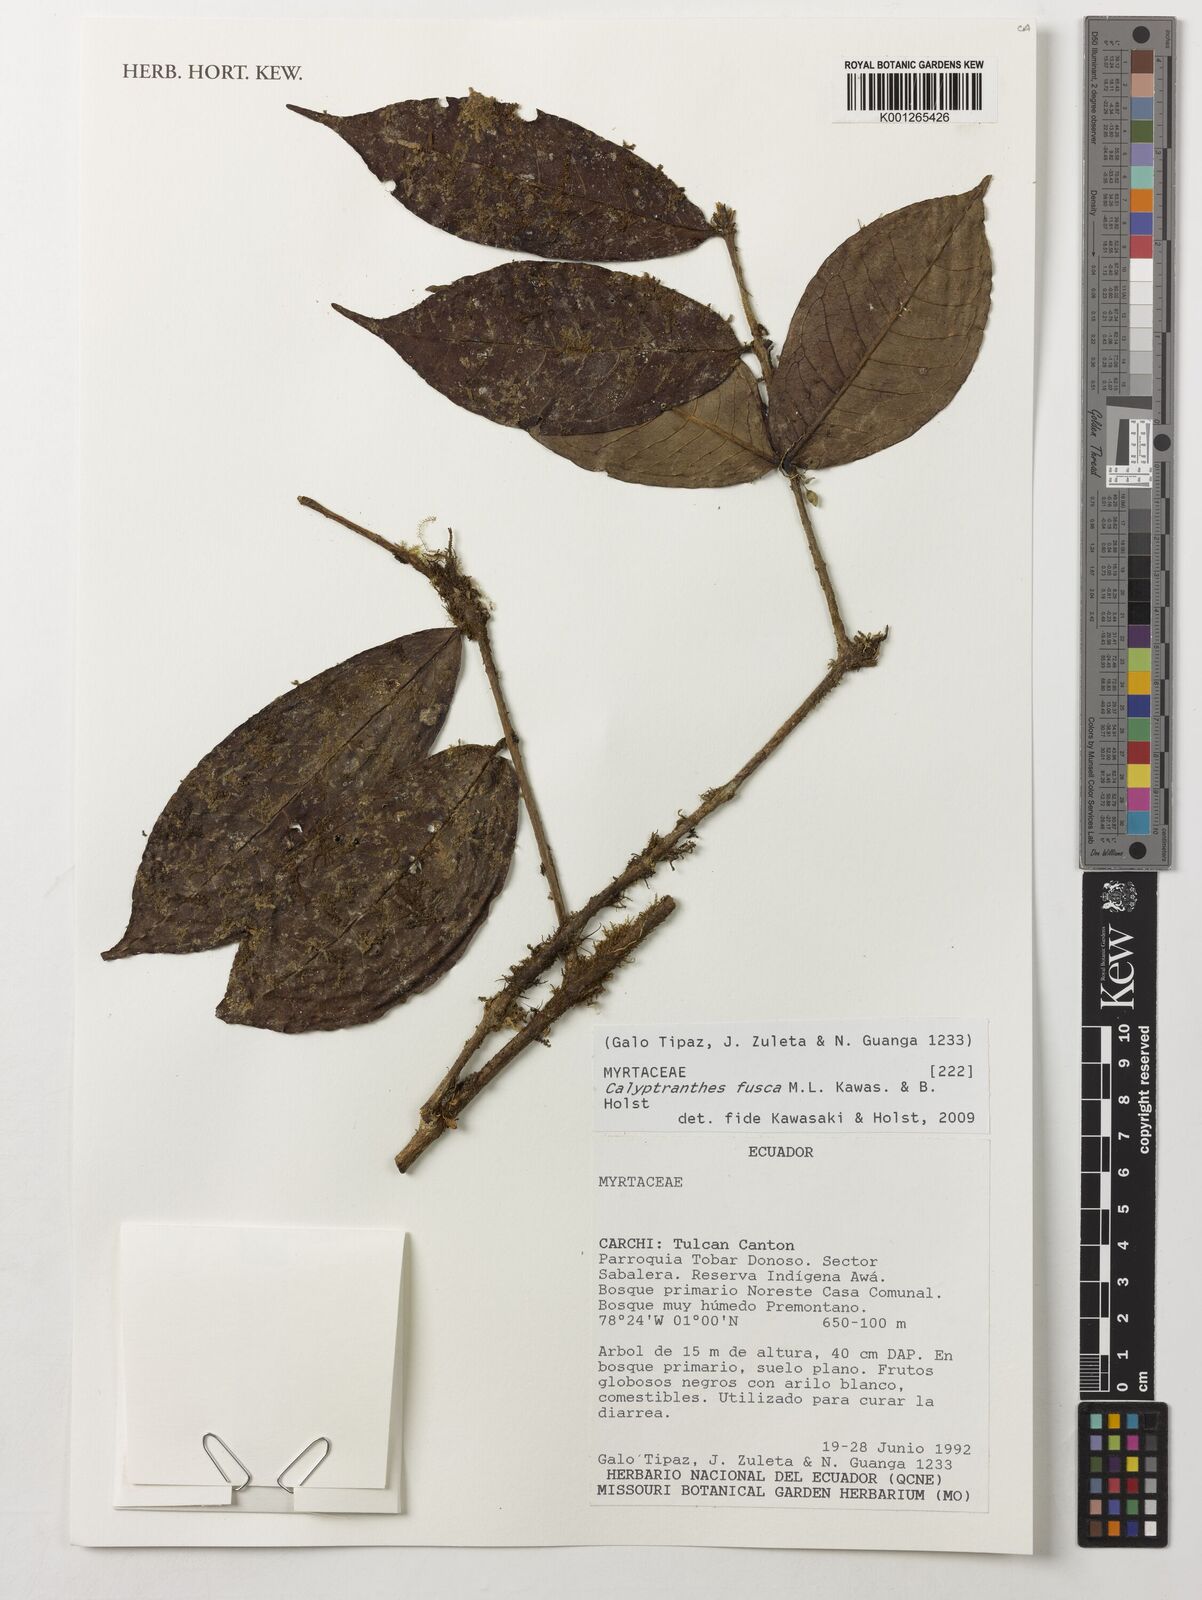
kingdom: Plantae
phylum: Tracheophyta
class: Magnoliopsida
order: Myrtales
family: Myrtaceae
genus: Myrcia
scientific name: Myrcia neofusca
